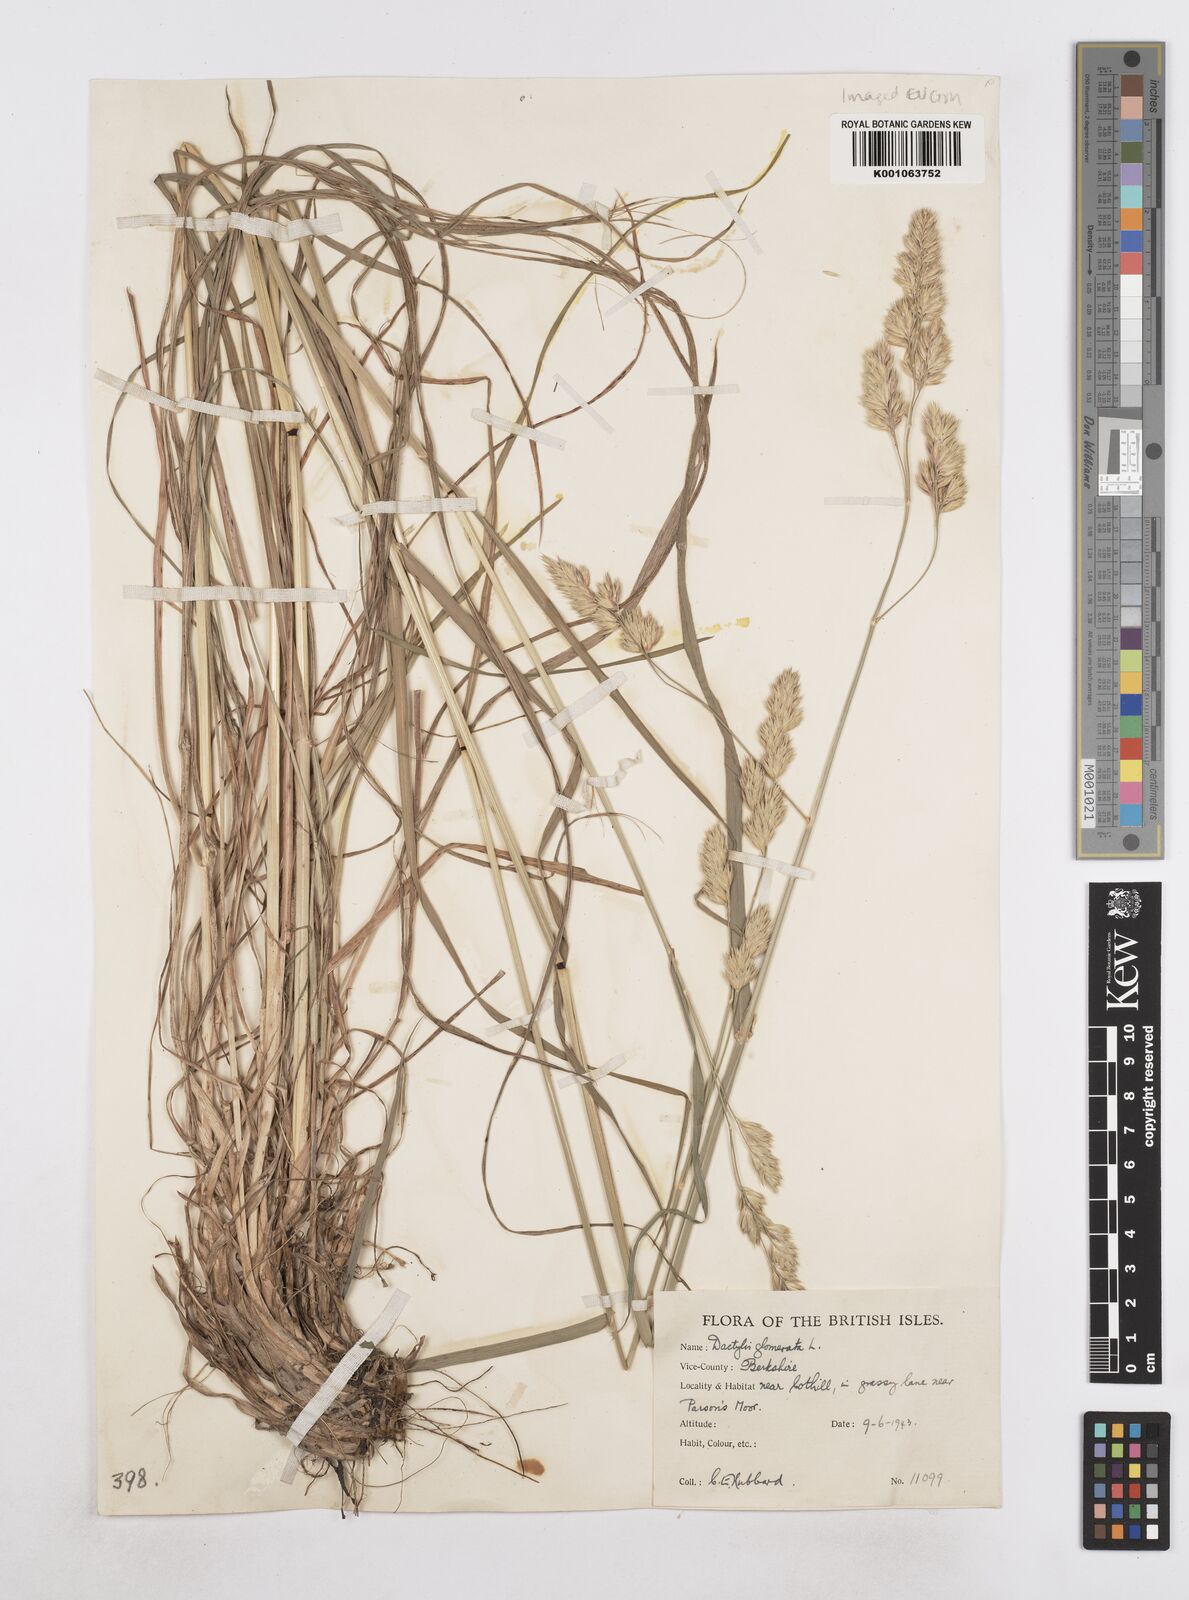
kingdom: Plantae
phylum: Tracheophyta
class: Liliopsida
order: Poales
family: Poaceae
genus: Dactylis
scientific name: Dactylis glomerata
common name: Orchardgrass
